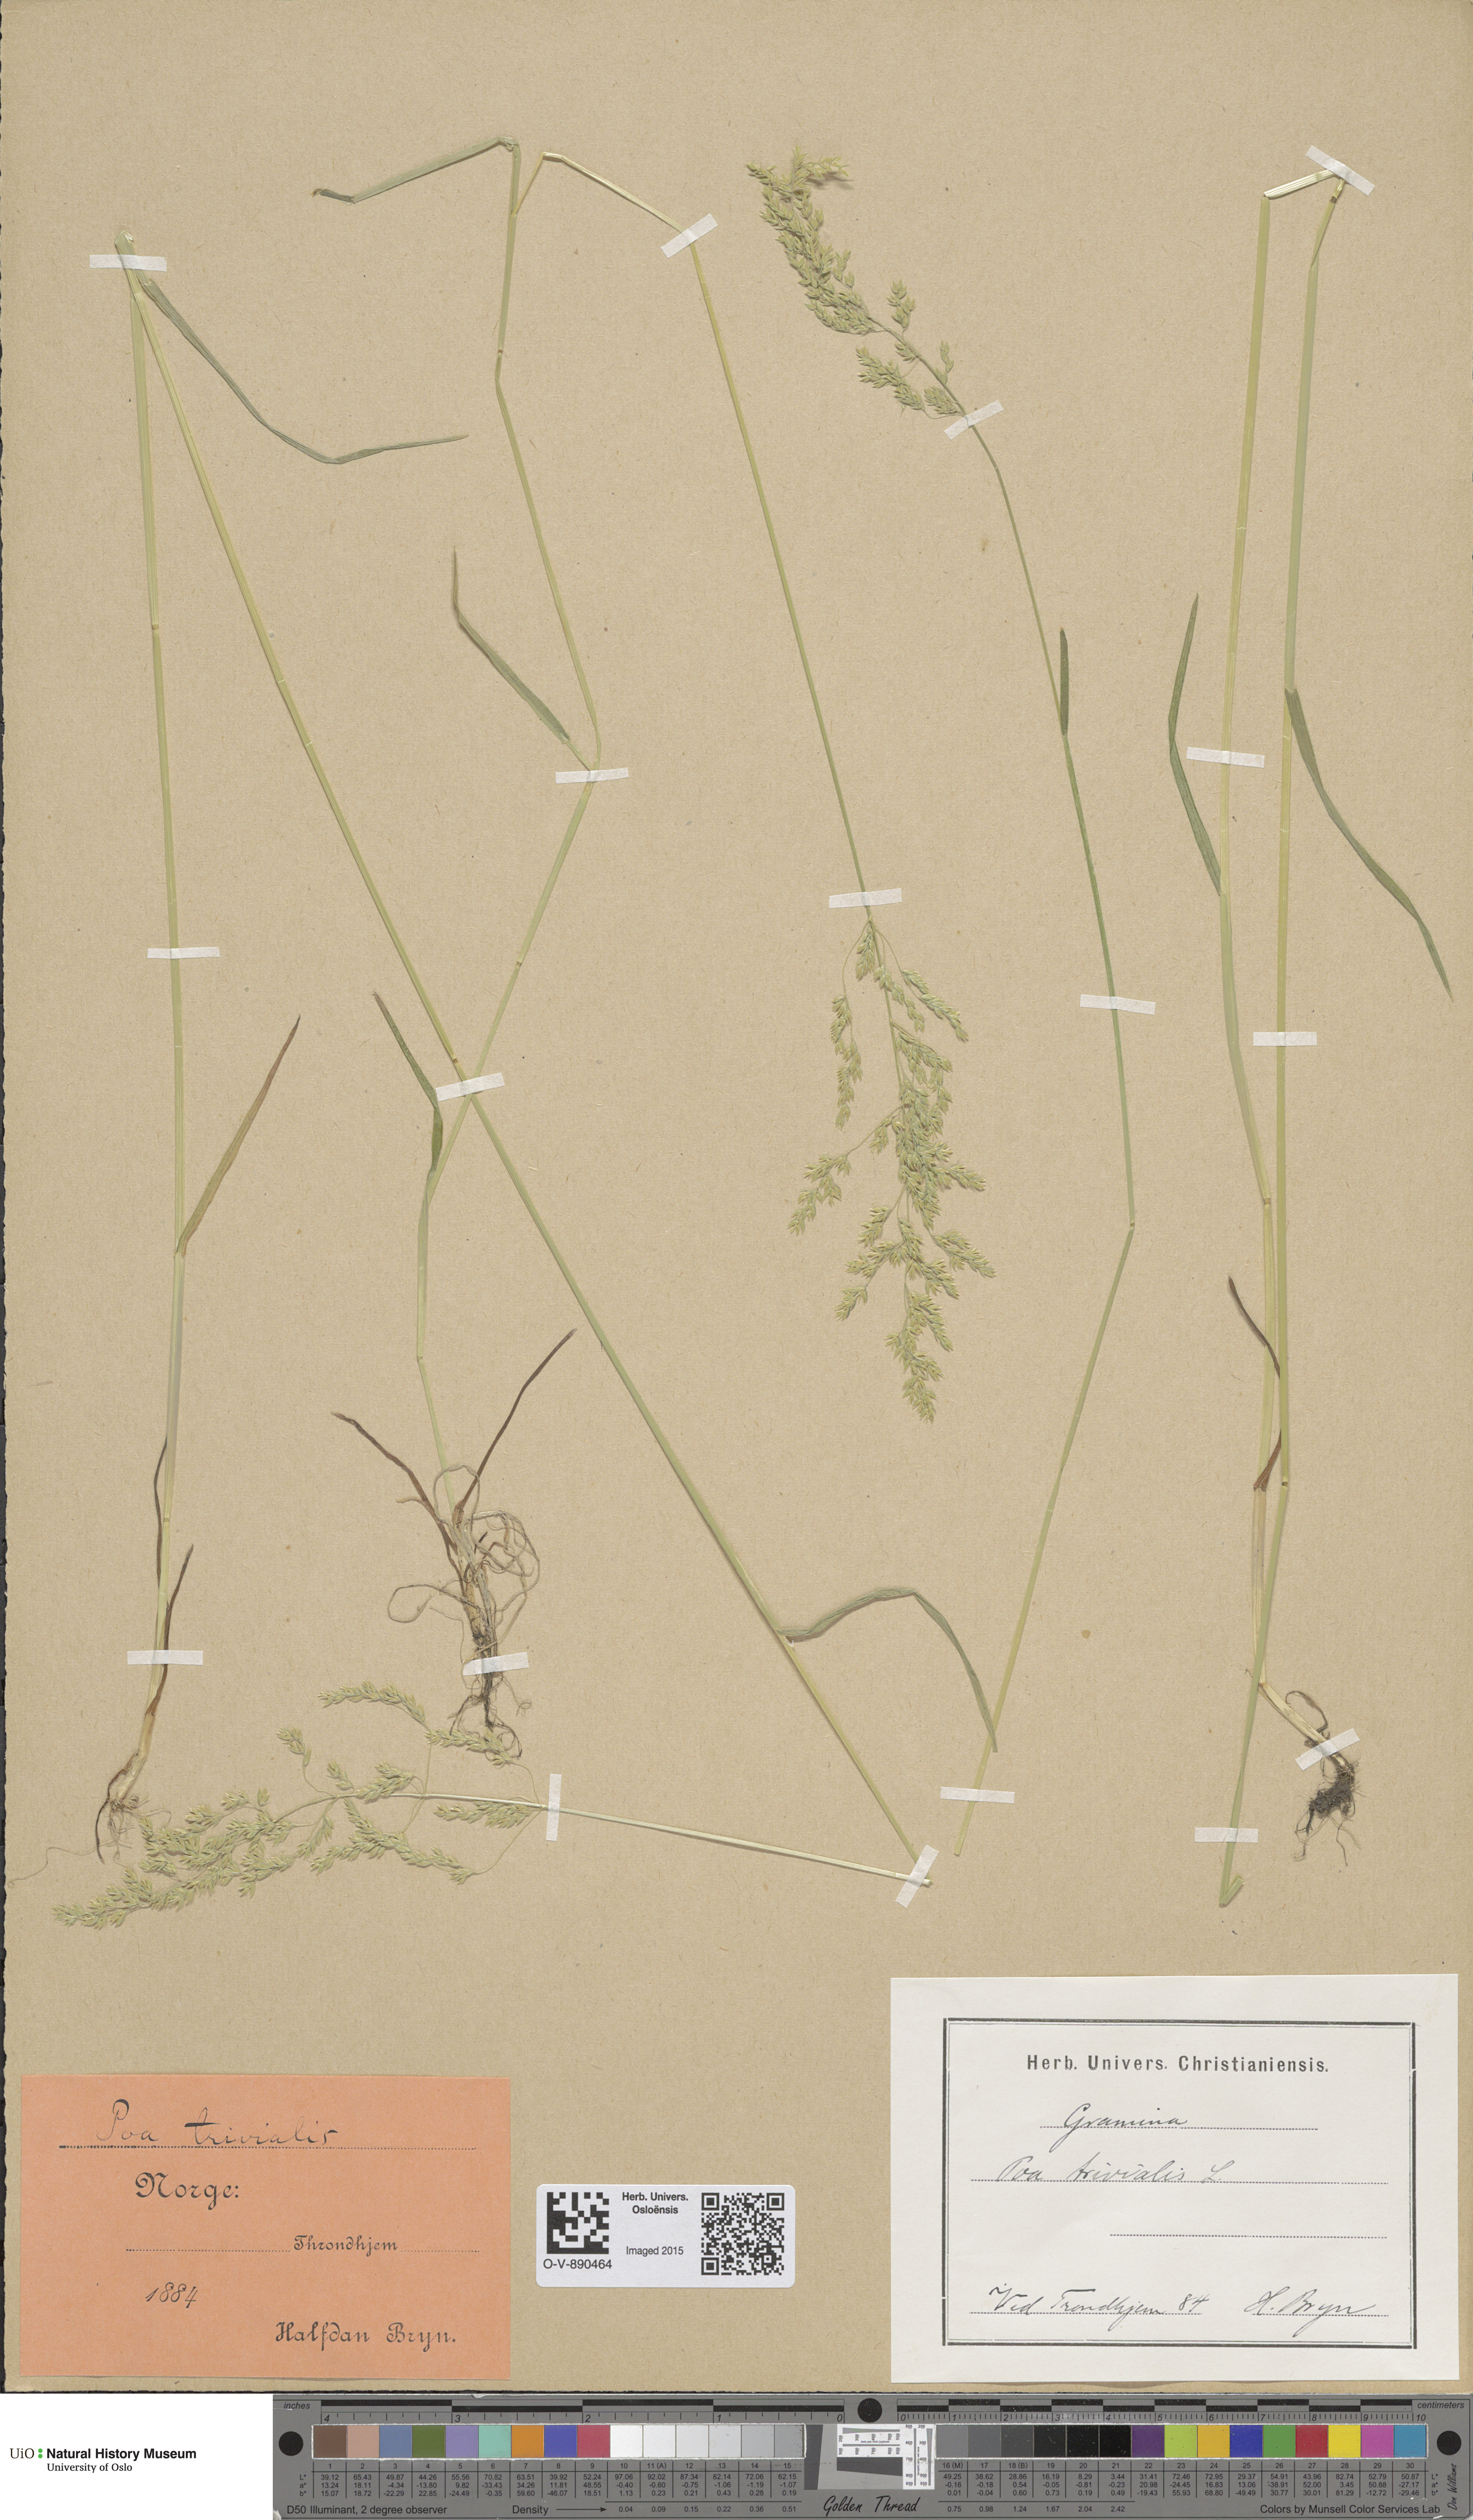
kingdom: Plantae
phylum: Tracheophyta
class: Liliopsida
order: Poales
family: Poaceae
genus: Poa
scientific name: Poa trivialis
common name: Rough bluegrass
